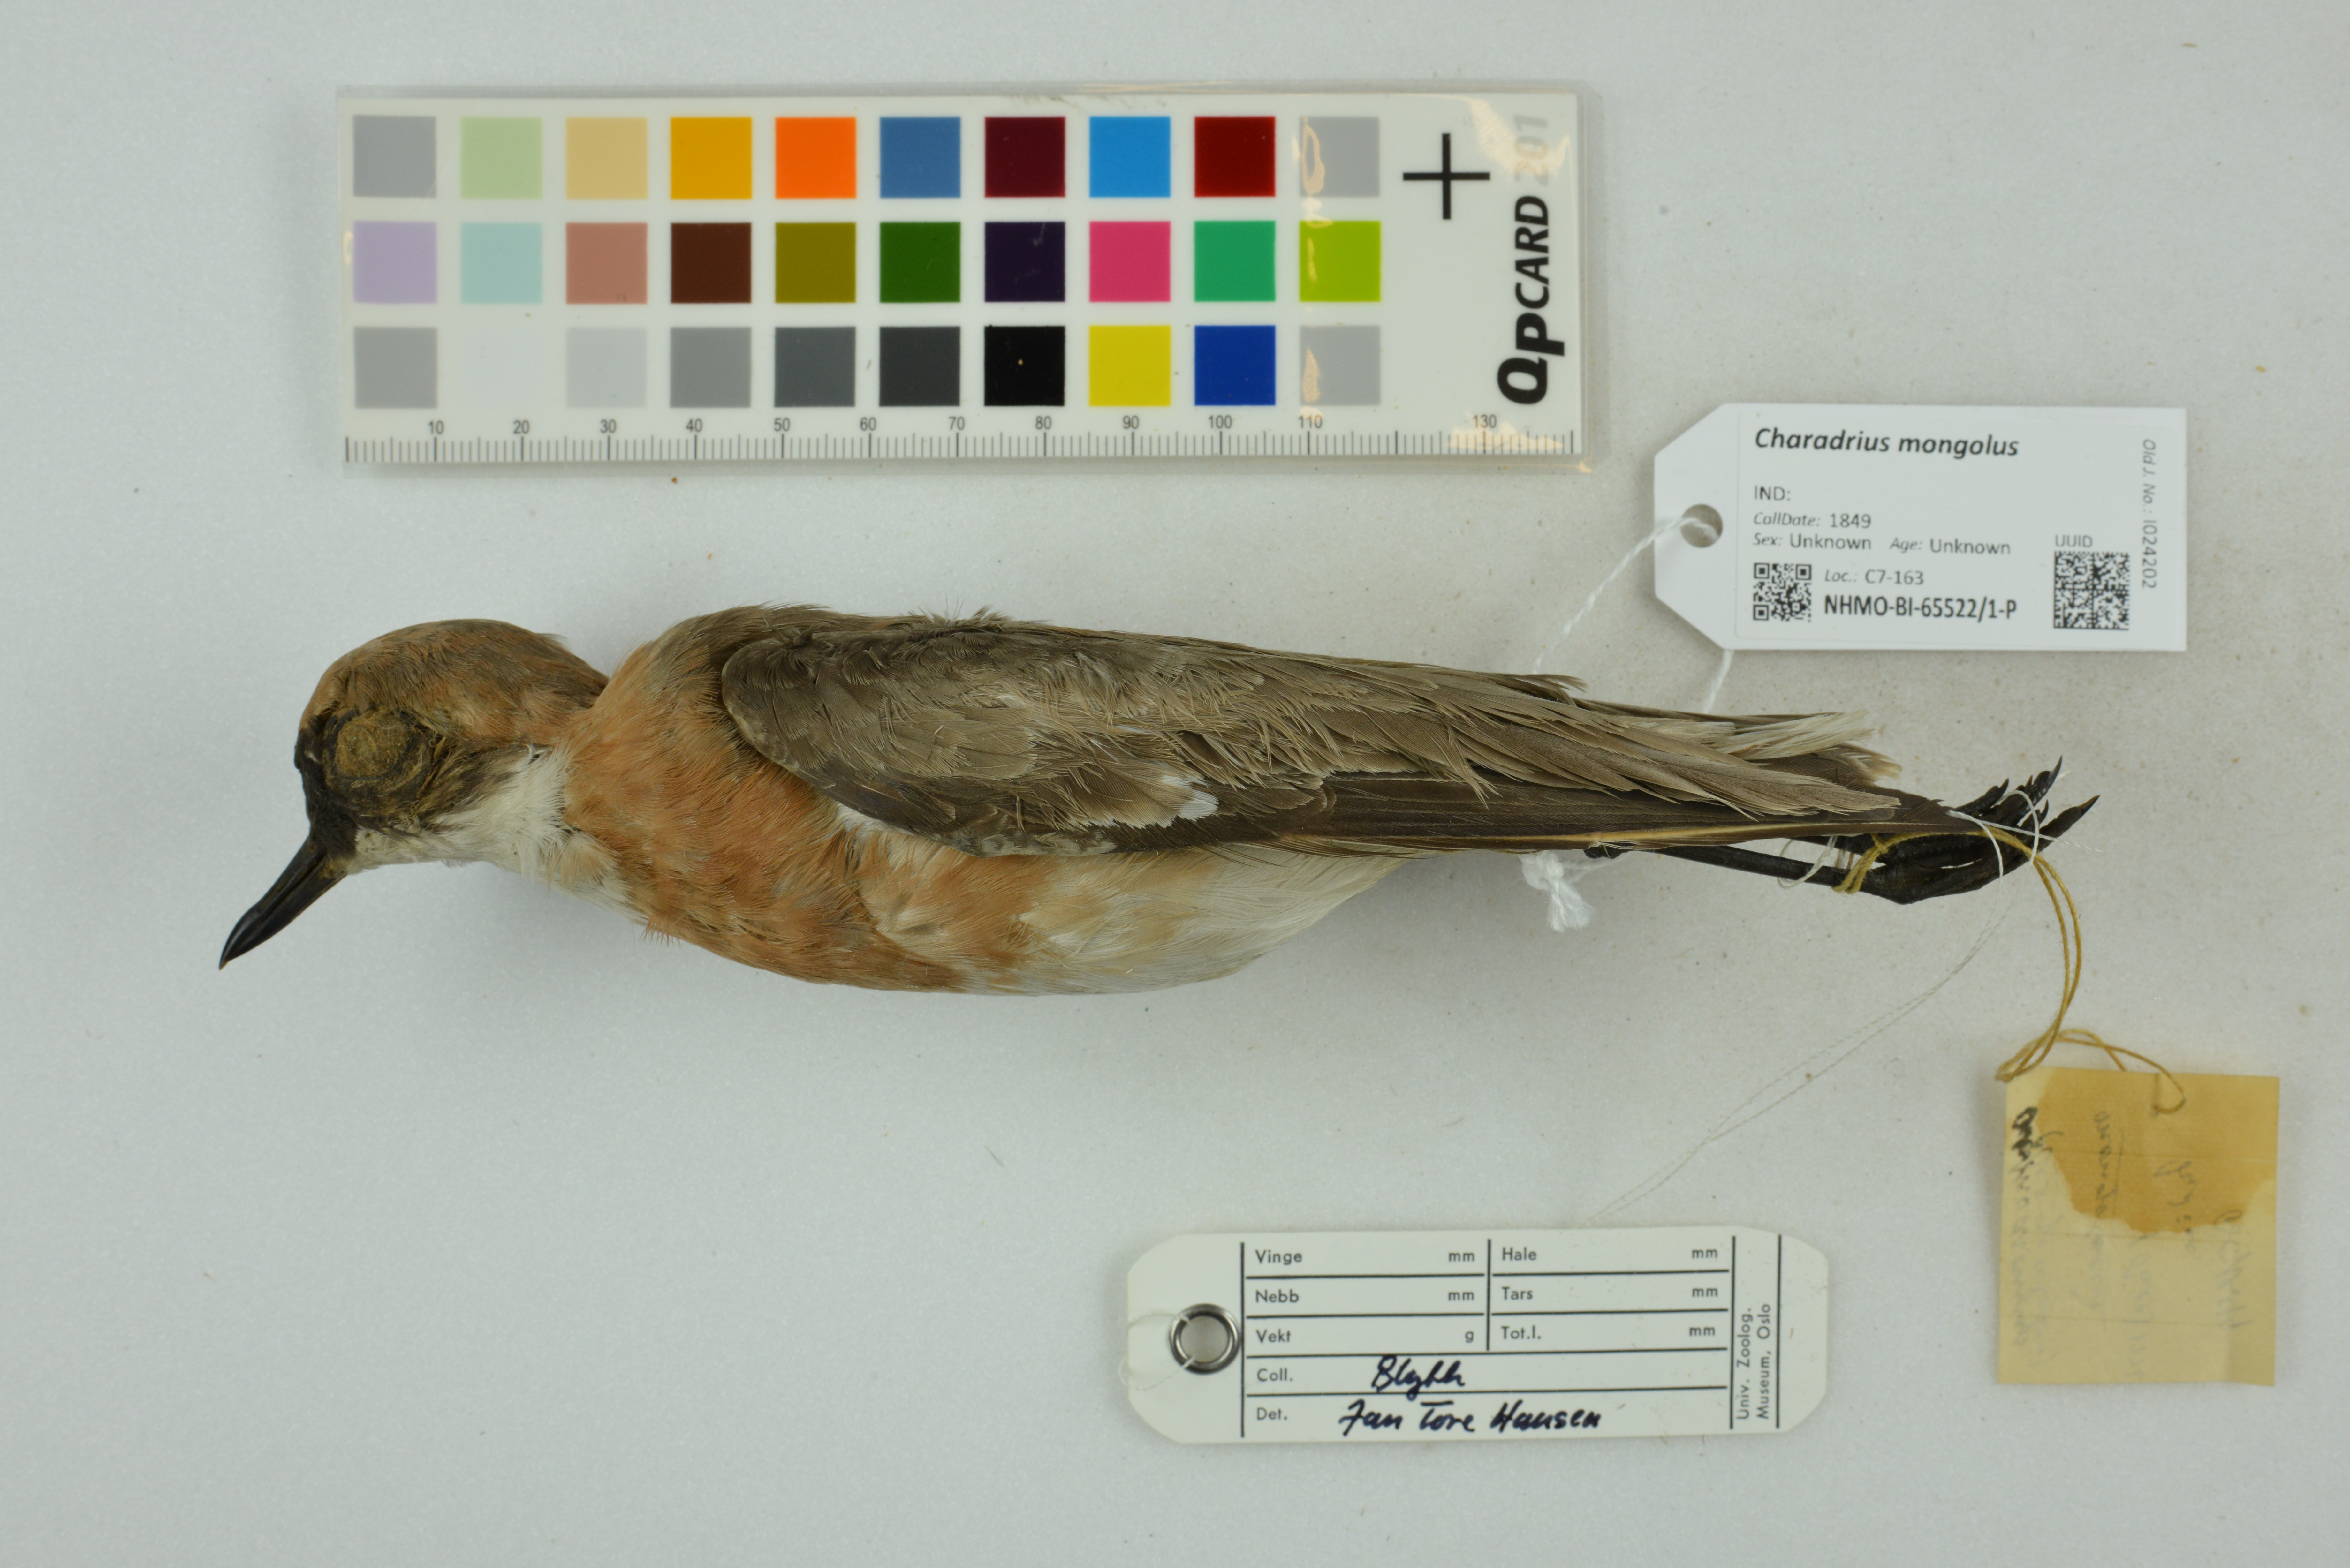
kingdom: Animalia
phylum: Chordata
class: Aves
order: Charadriiformes
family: Charadriidae
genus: Charadrius
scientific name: Charadrius mongolus
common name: Lesser sand-plover
